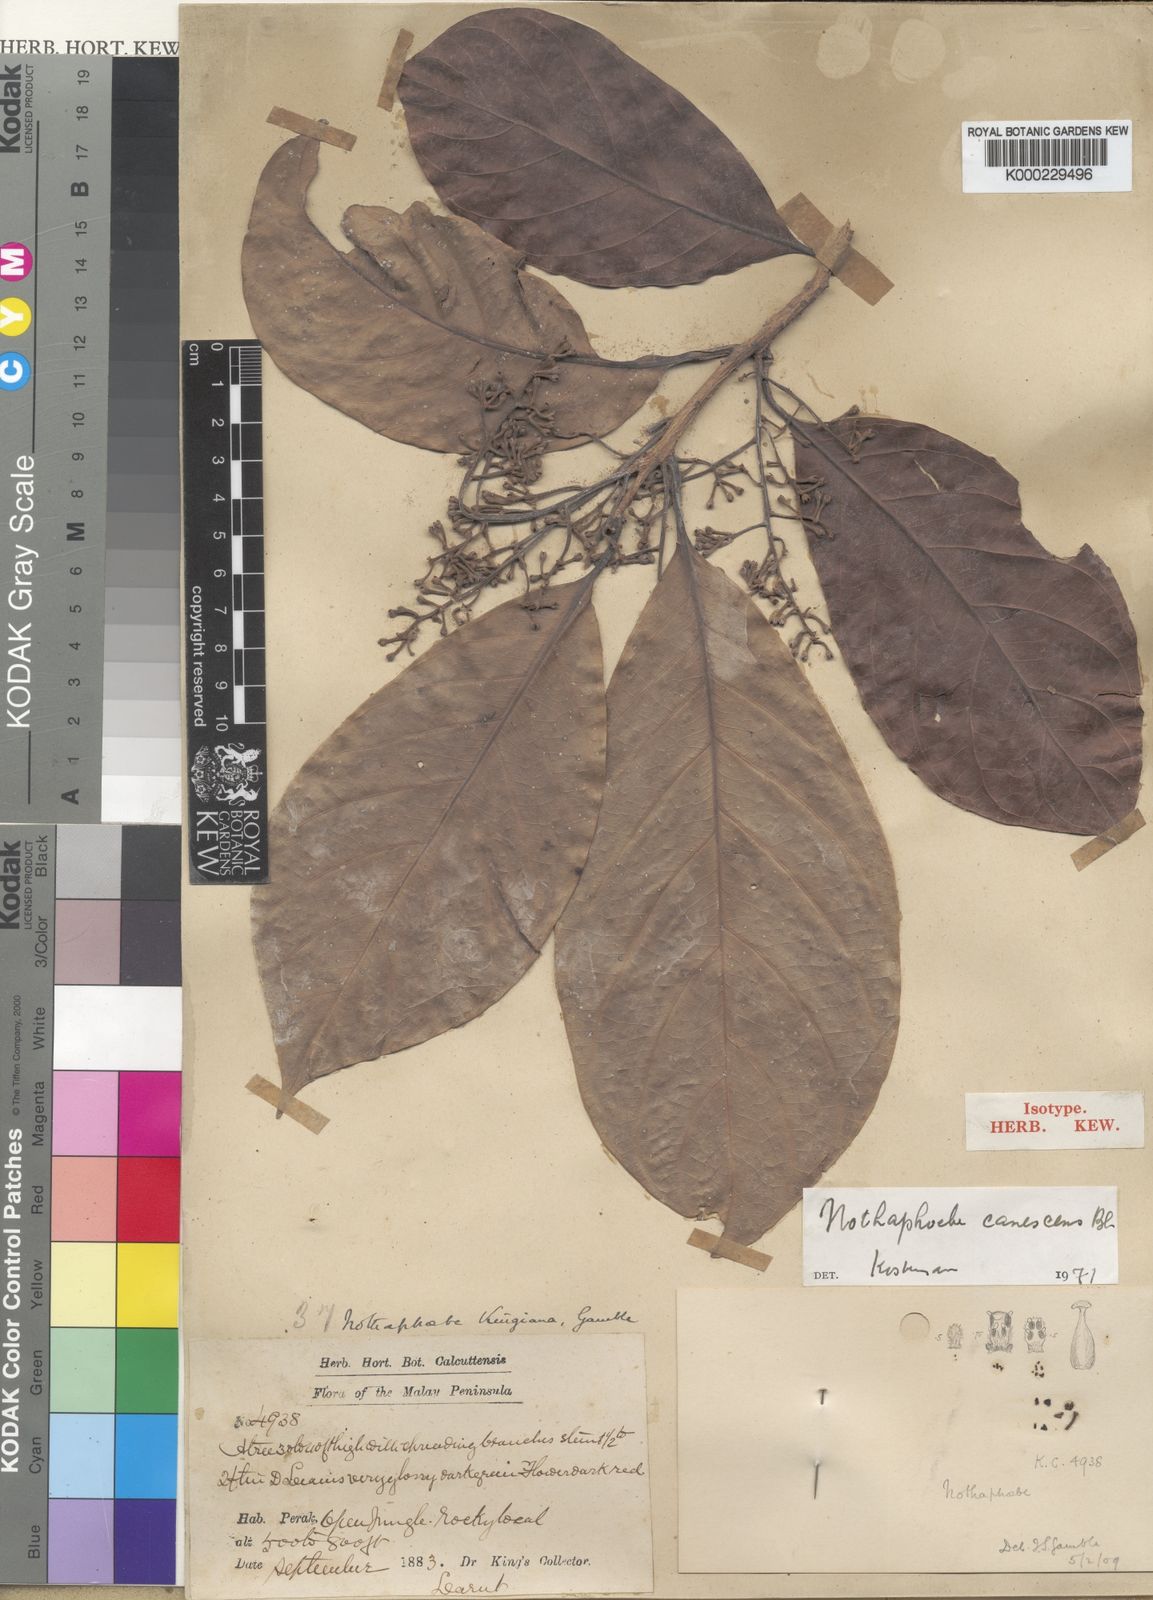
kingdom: Plantae
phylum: Tracheophyta
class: Magnoliopsida
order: Laurales
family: Lauraceae
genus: Phoebe
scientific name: Phoebe canescens
